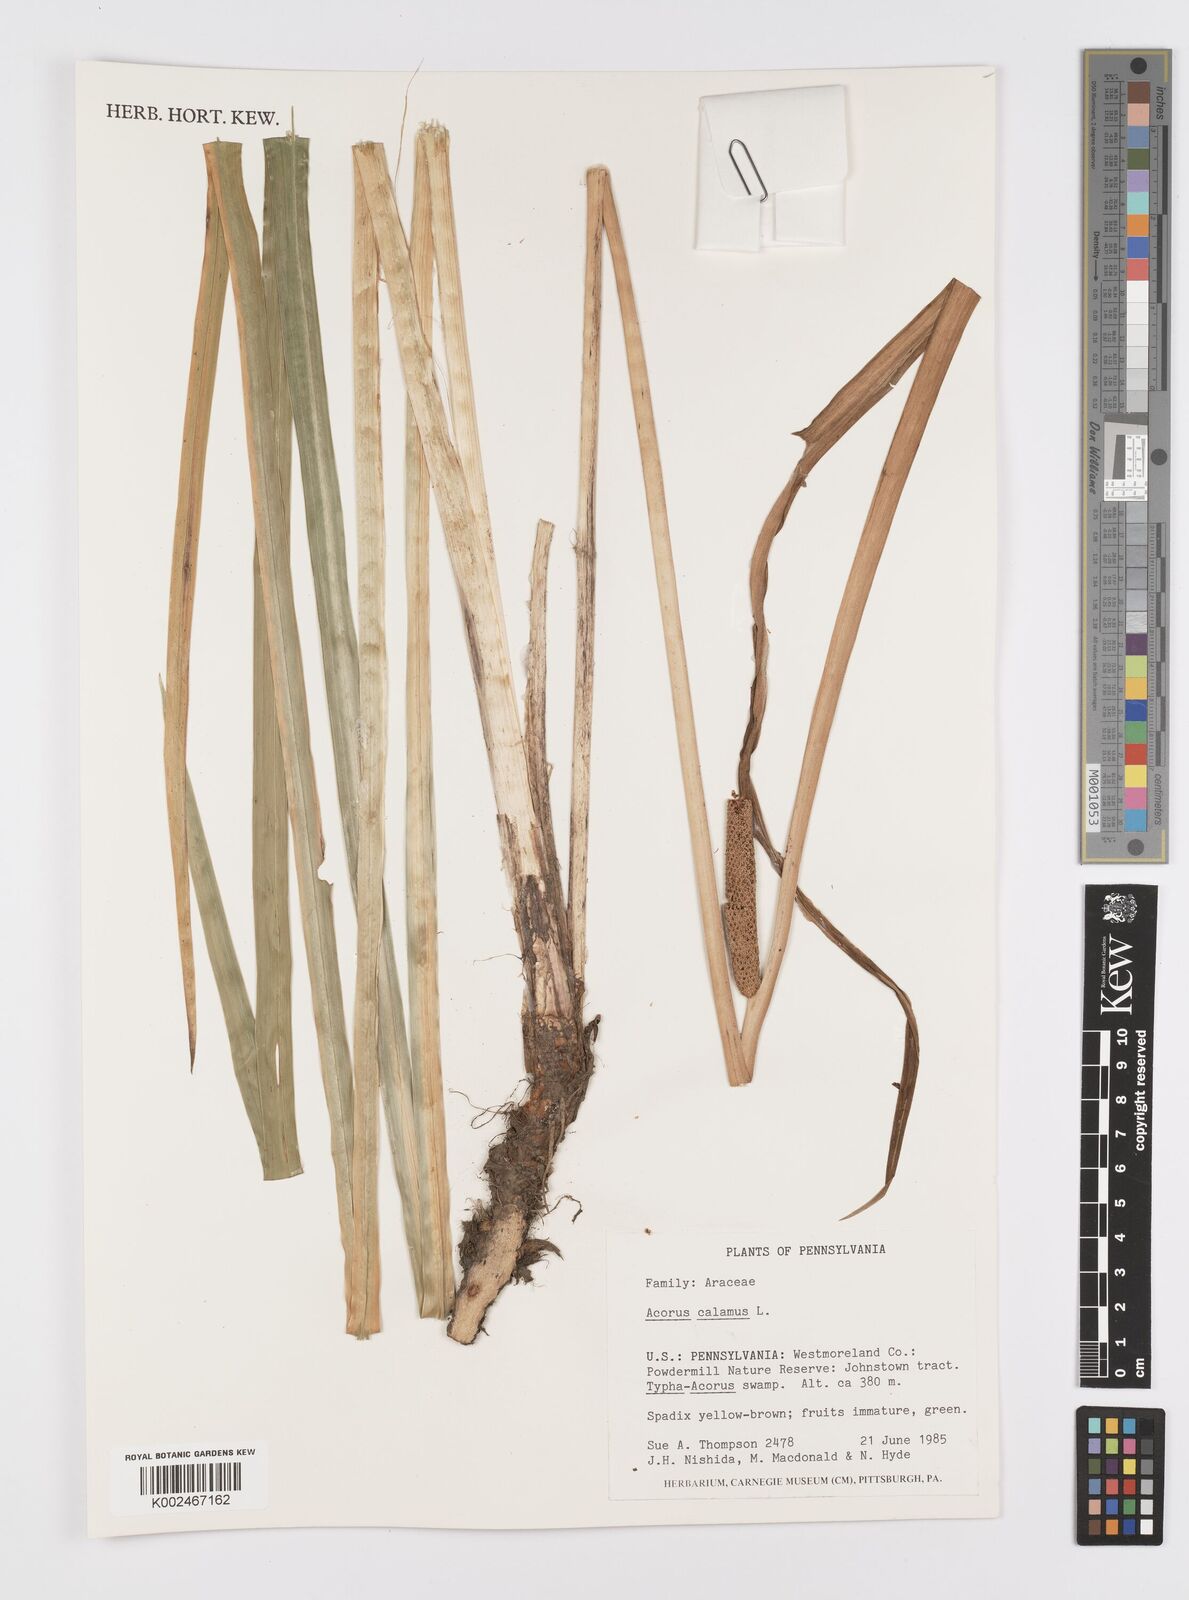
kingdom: Plantae
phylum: Tracheophyta
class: Liliopsida
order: Acorales
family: Acoraceae
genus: Acorus
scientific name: Acorus calamus
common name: Sweet-flag
